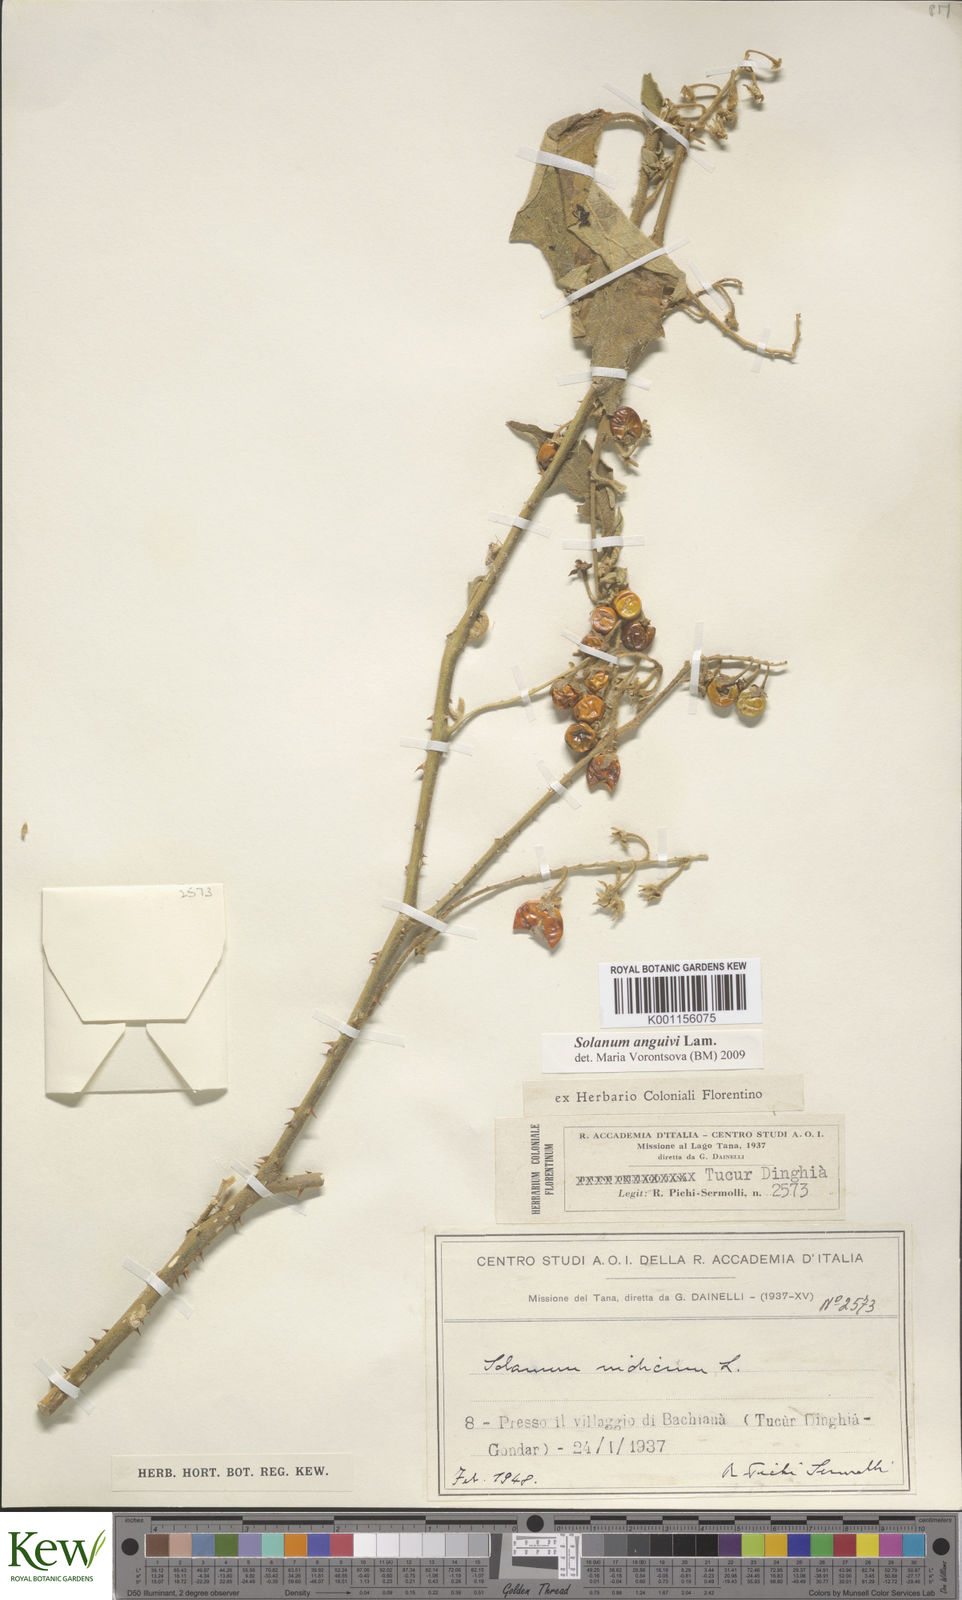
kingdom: Plantae
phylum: Tracheophyta
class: Magnoliopsida
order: Solanales
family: Solanaceae
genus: Solanum
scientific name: Solanum anguivi
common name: Forest bitterberry
